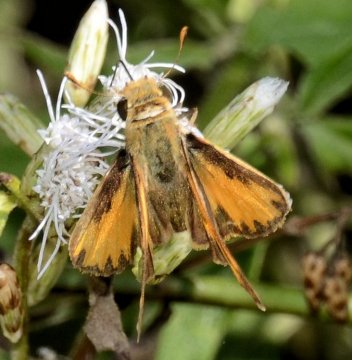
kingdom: Animalia
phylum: Arthropoda
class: Insecta
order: Lepidoptera
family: Hesperiidae
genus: Hylephila
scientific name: Hylephila phyleus
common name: Fiery Skipper
